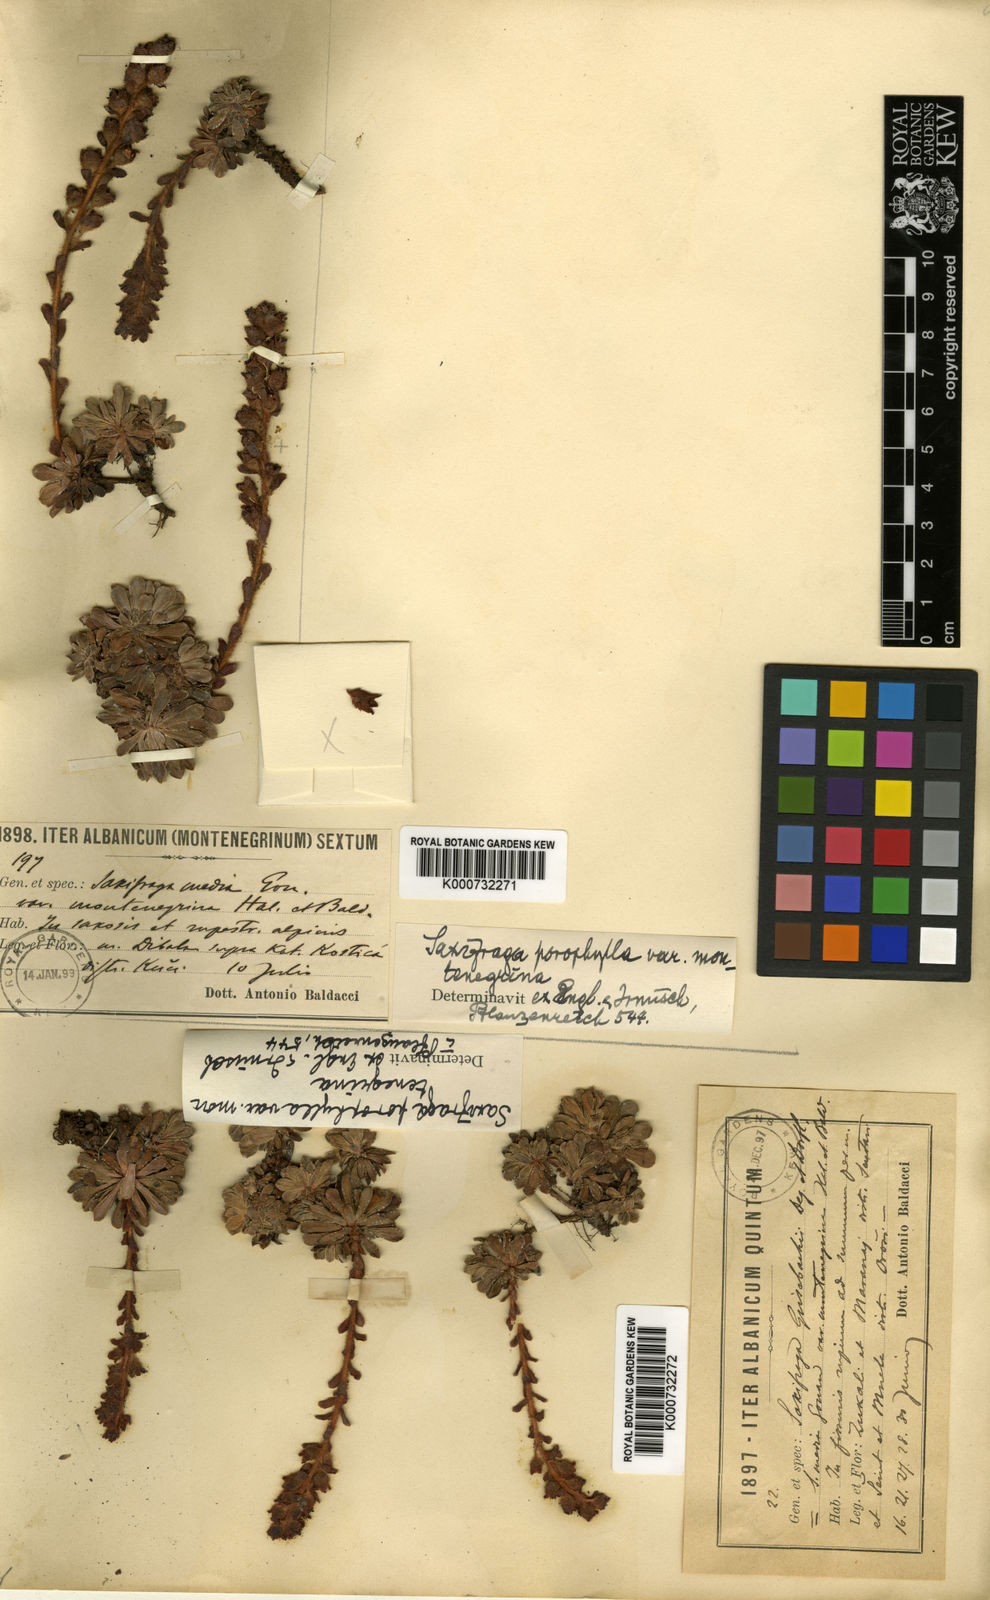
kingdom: Plantae
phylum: Tracheophyta
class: Magnoliopsida
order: Saxifragales
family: Saxifragaceae
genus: Saxifraga
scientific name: Saxifraga
